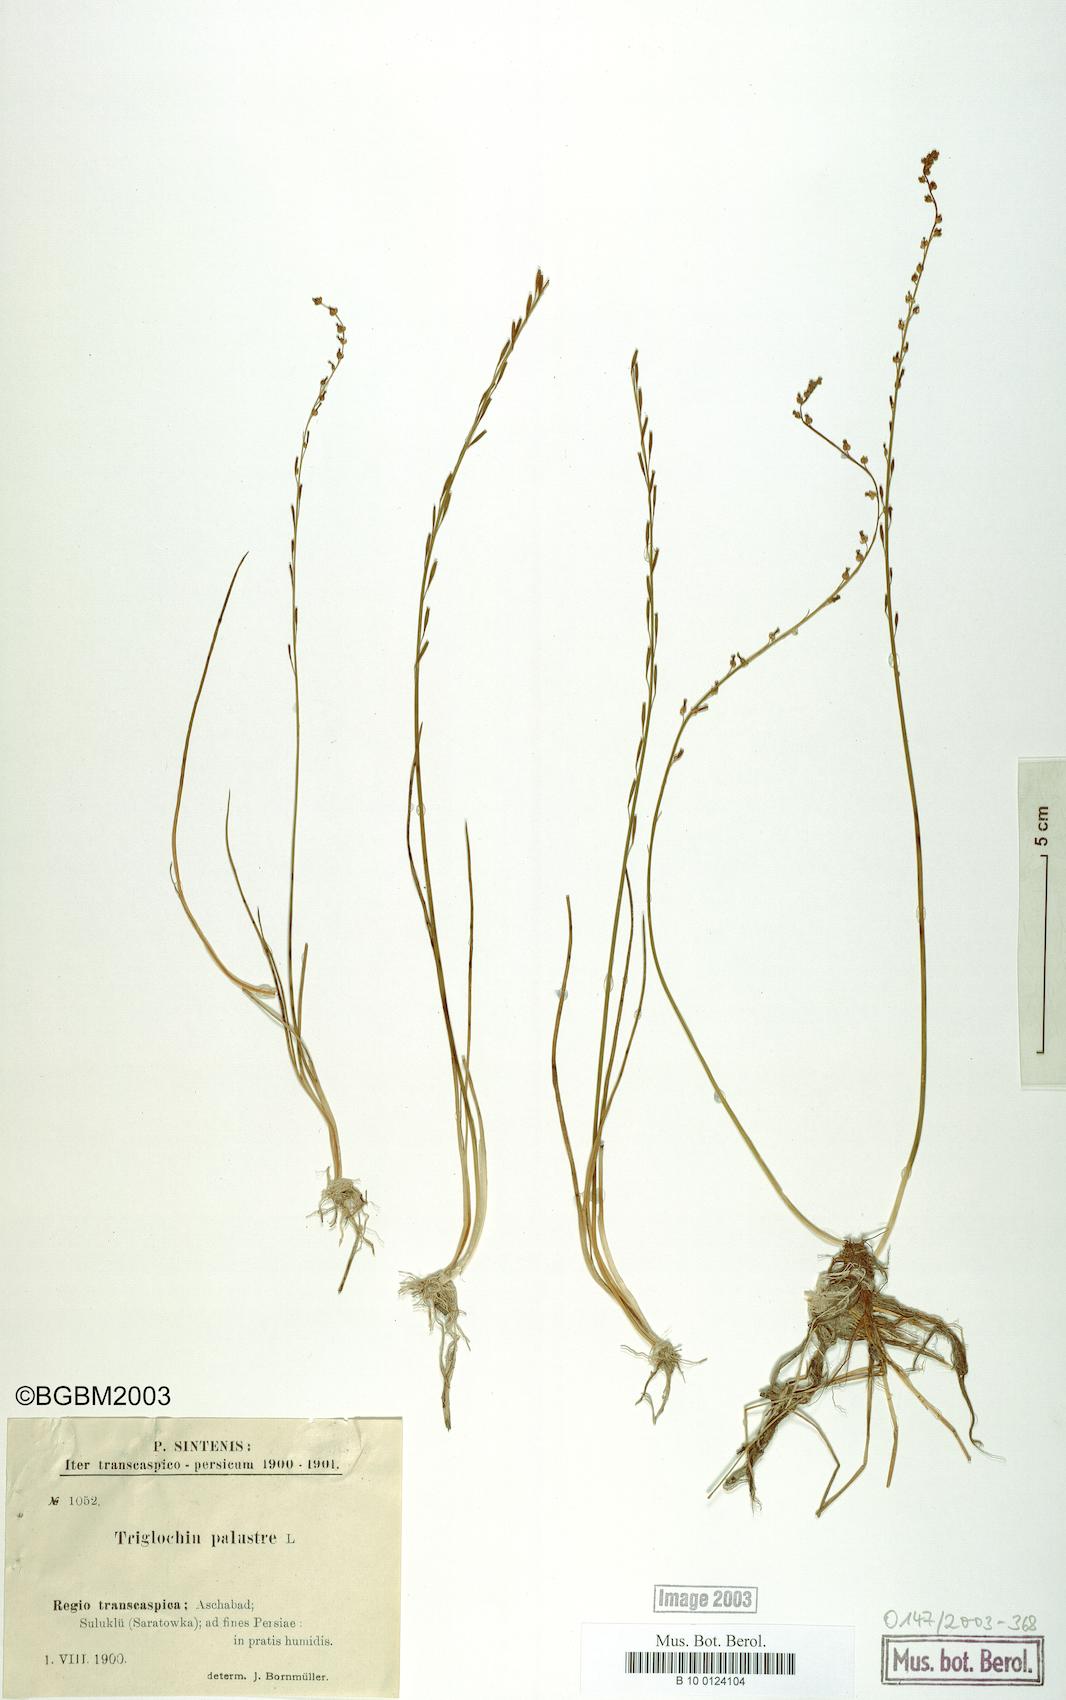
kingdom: Plantae
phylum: Tracheophyta
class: Liliopsida
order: Alismatales
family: Juncaginaceae
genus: Triglochin
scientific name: Triglochin palustris
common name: Marsh arrowgrass
